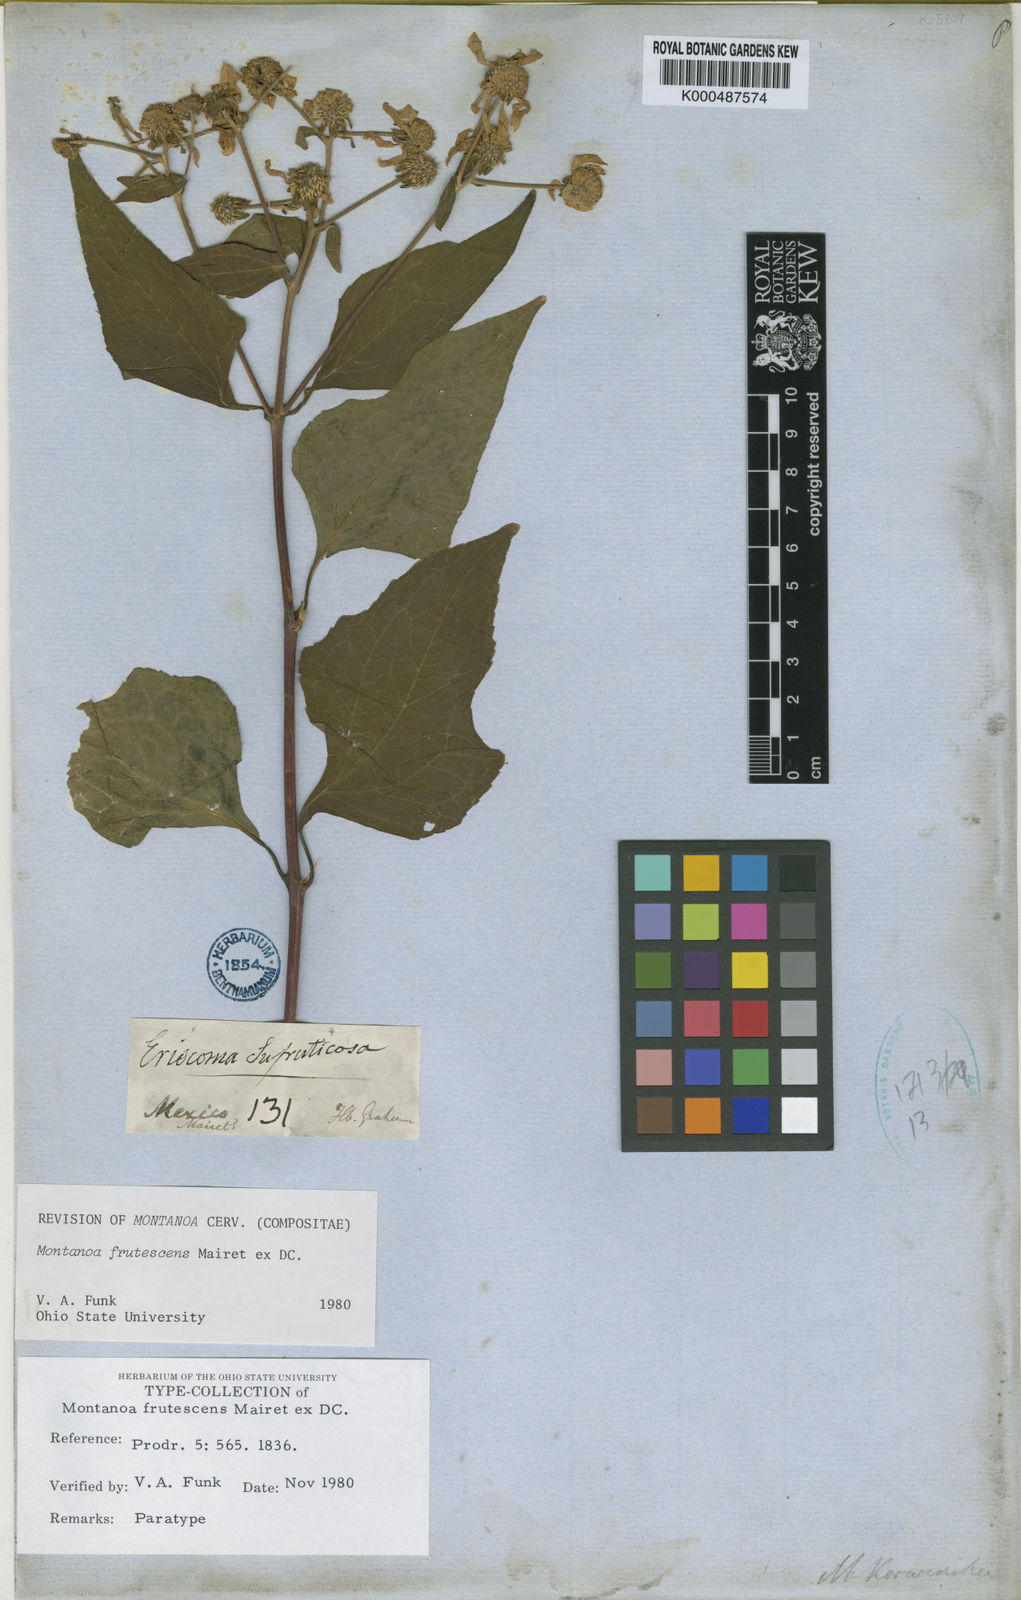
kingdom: Plantae
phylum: Tracheophyta
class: Magnoliopsida
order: Asterales
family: Asteraceae
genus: Montanoa
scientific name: Montanoa
